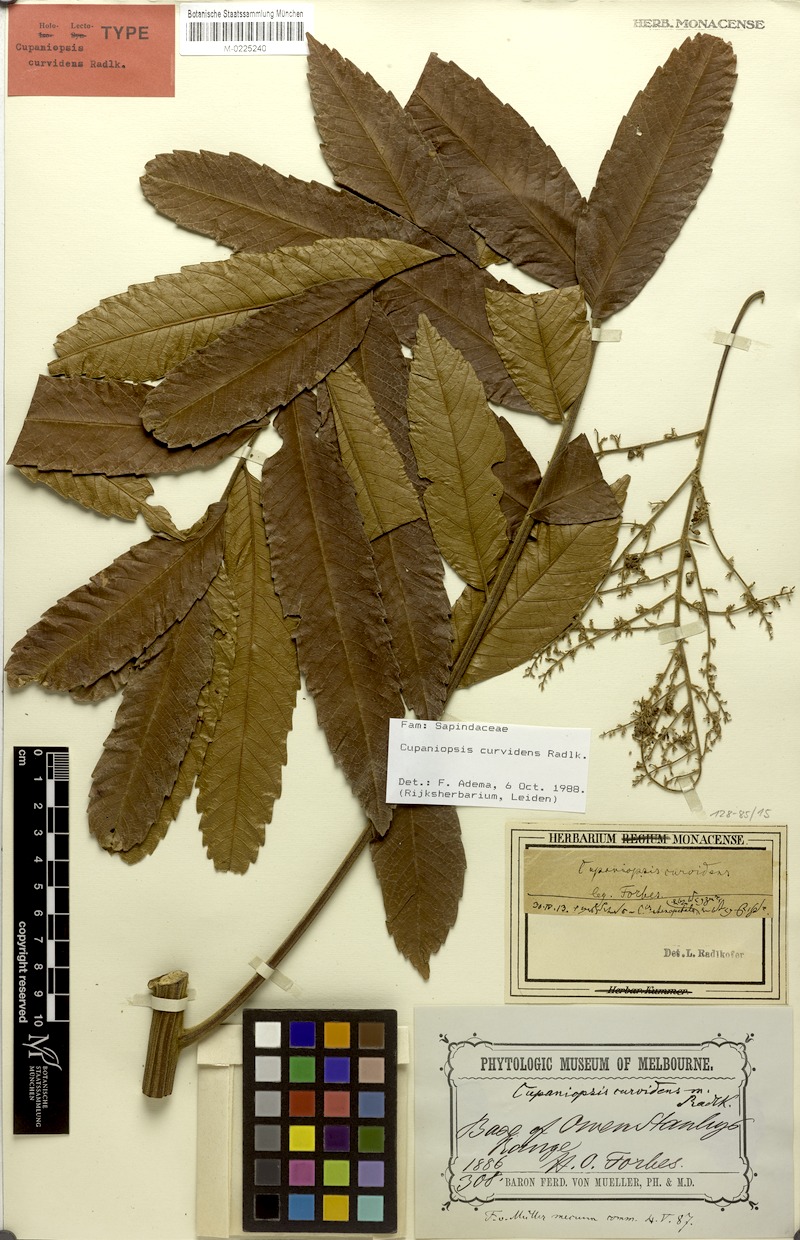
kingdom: Plantae
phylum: Tracheophyta
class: Magnoliopsida
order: Sapindales
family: Sapindaceae
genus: Cupaniopsis
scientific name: Cupaniopsis curvidens
